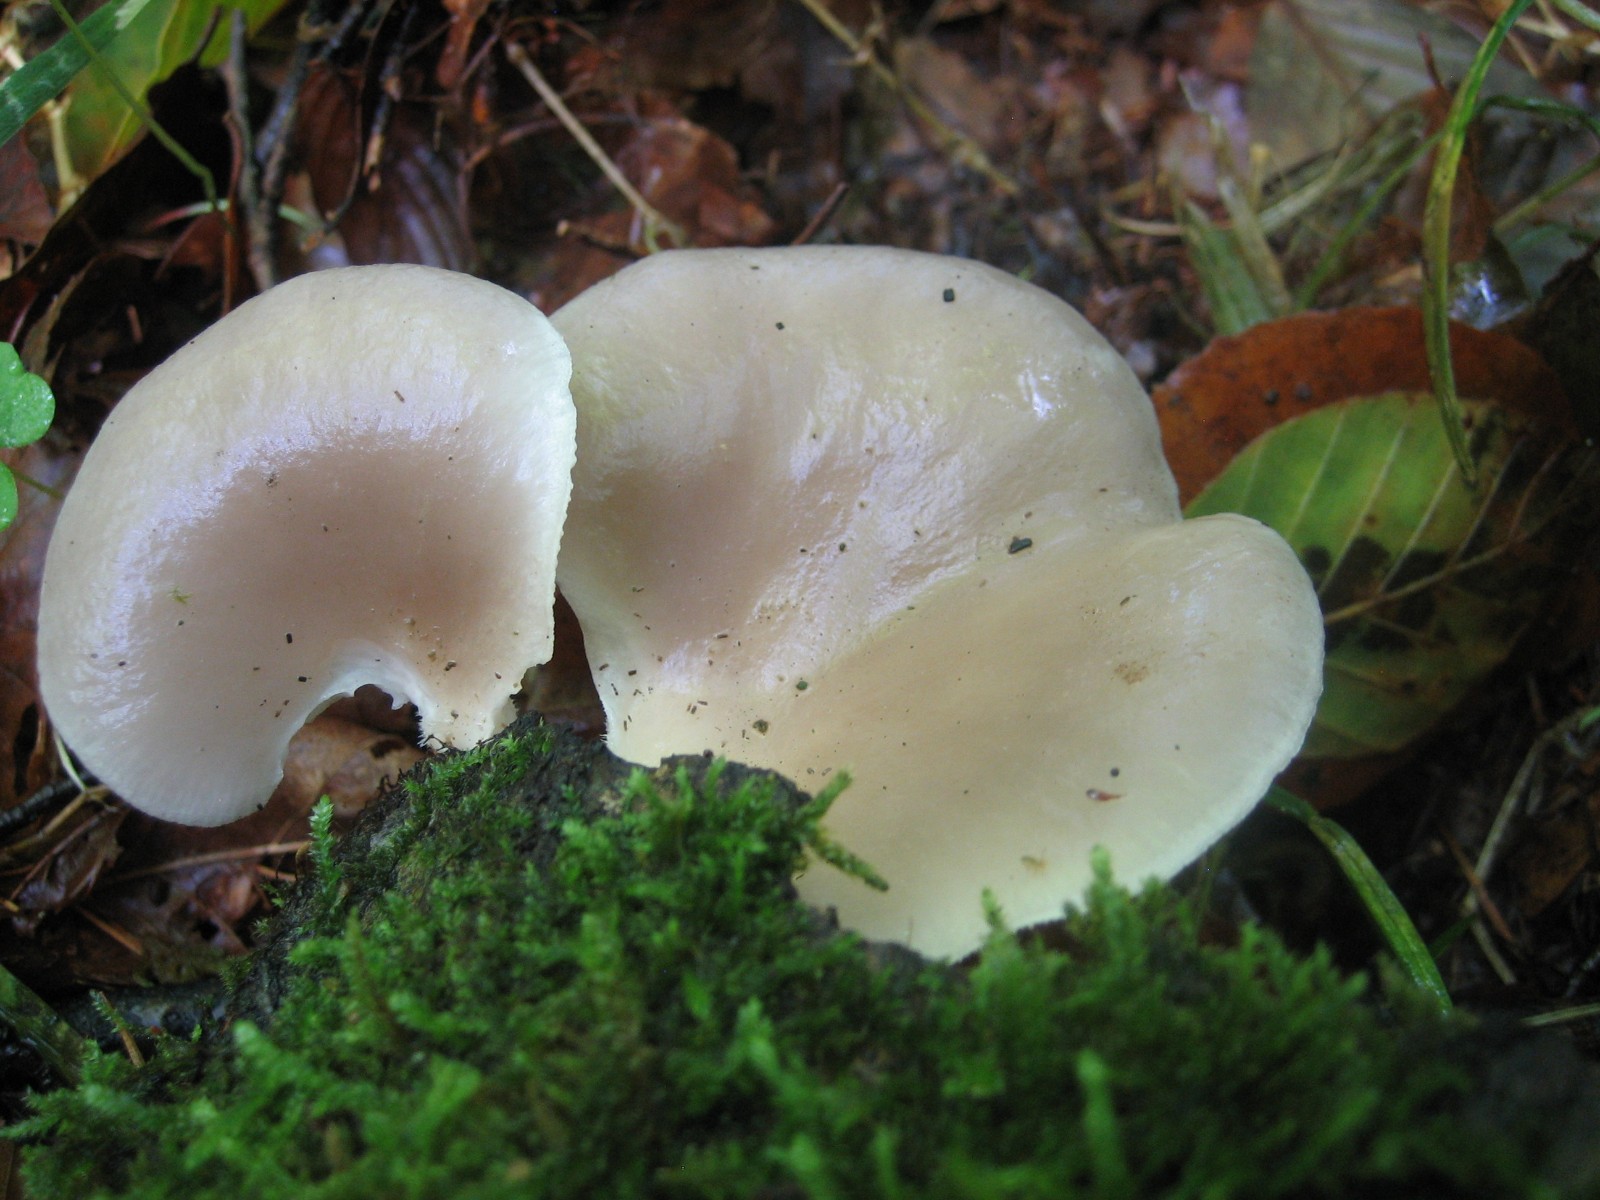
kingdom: Fungi
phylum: Basidiomycota
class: Agaricomycetes
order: Agaricales
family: Pleurotaceae
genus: Pleurotus
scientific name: Pleurotus pulmonarius
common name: sommer-østershat
